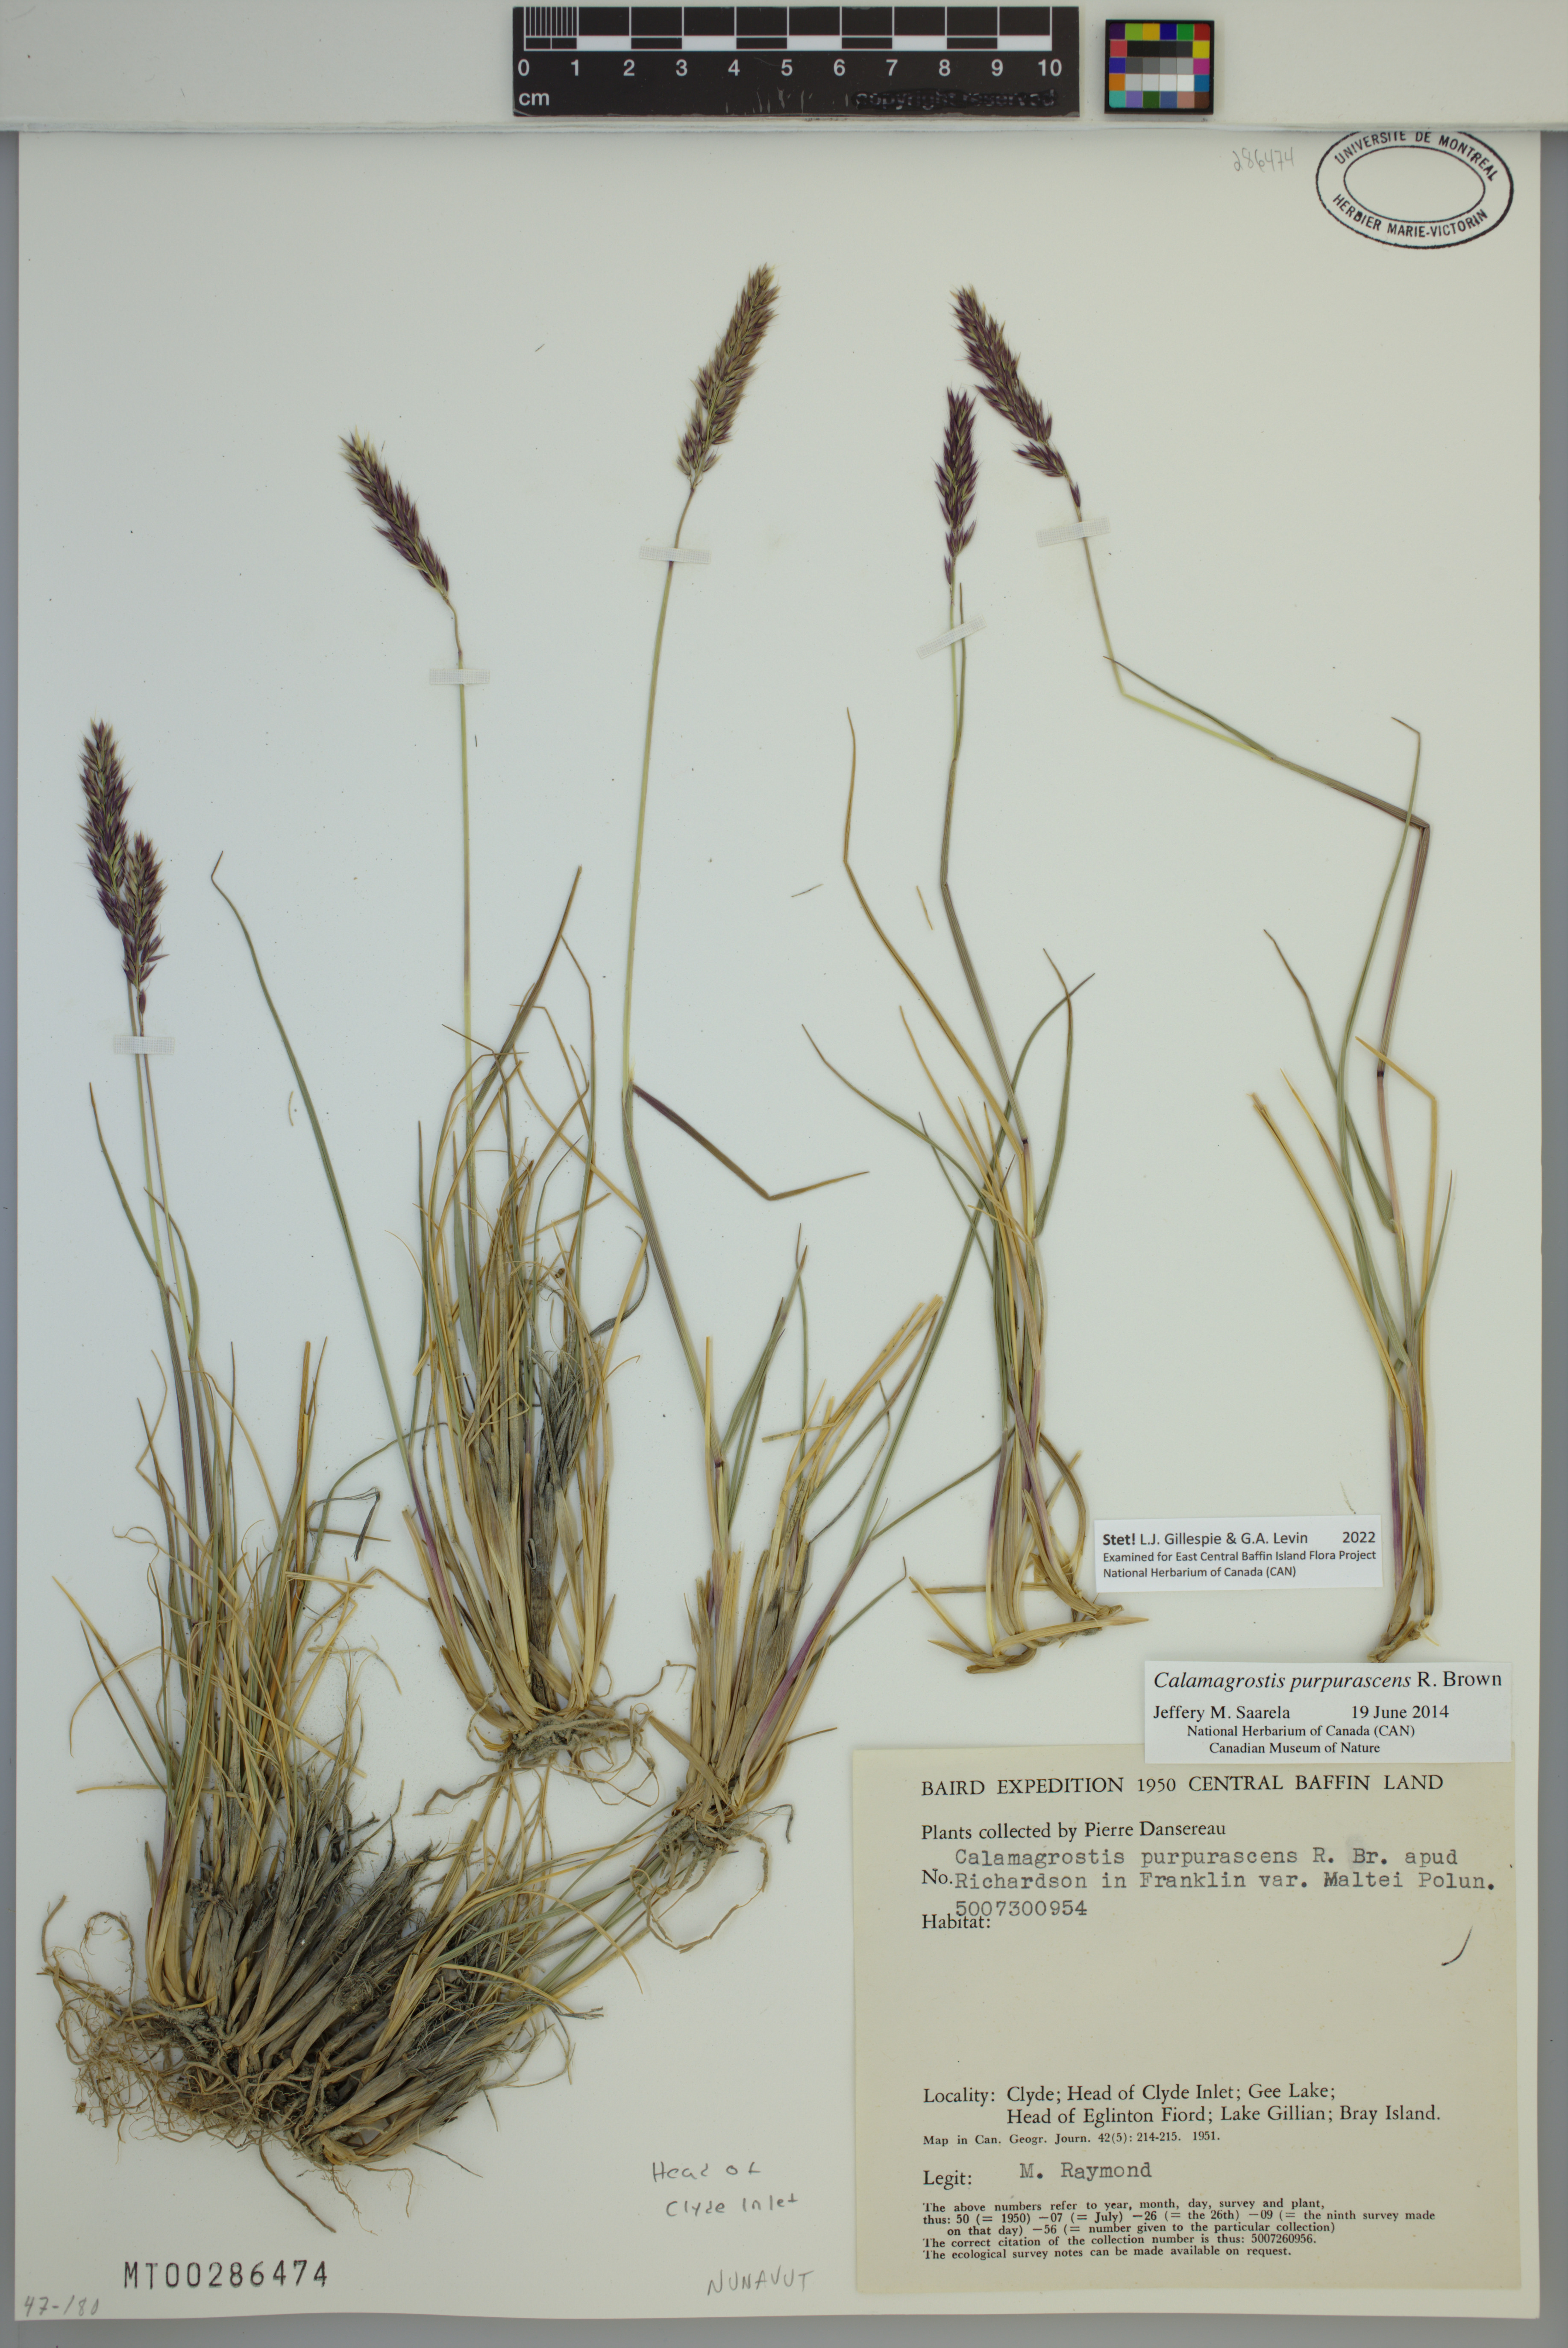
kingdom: Plantae
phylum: Tracheophyta
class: Liliopsida
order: Poales
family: Poaceae
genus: Calamagrostis
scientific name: Calamagrostis purpurascens
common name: Purple reedgrass
